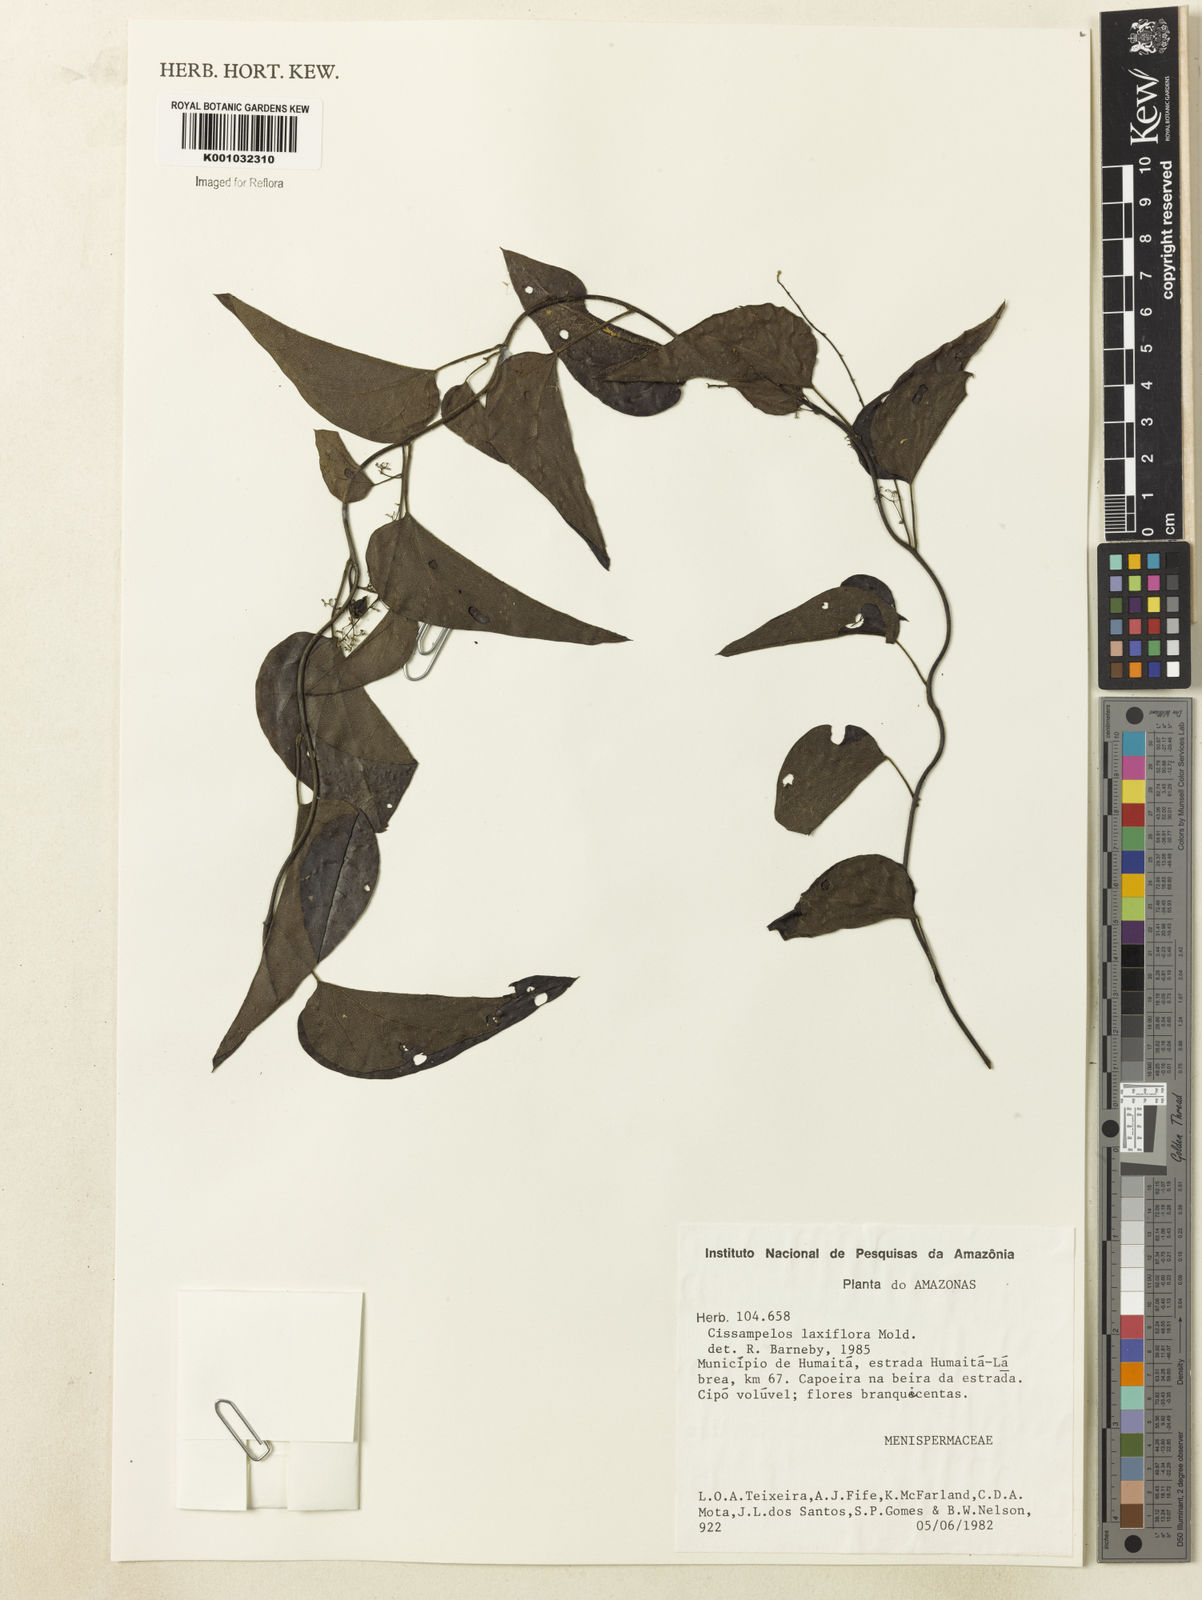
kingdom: Plantae
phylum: Tracheophyta
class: Magnoliopsida
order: Ranunculales
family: Menispermaceae
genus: Cissampelos
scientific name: Cissampelos laxiflora
